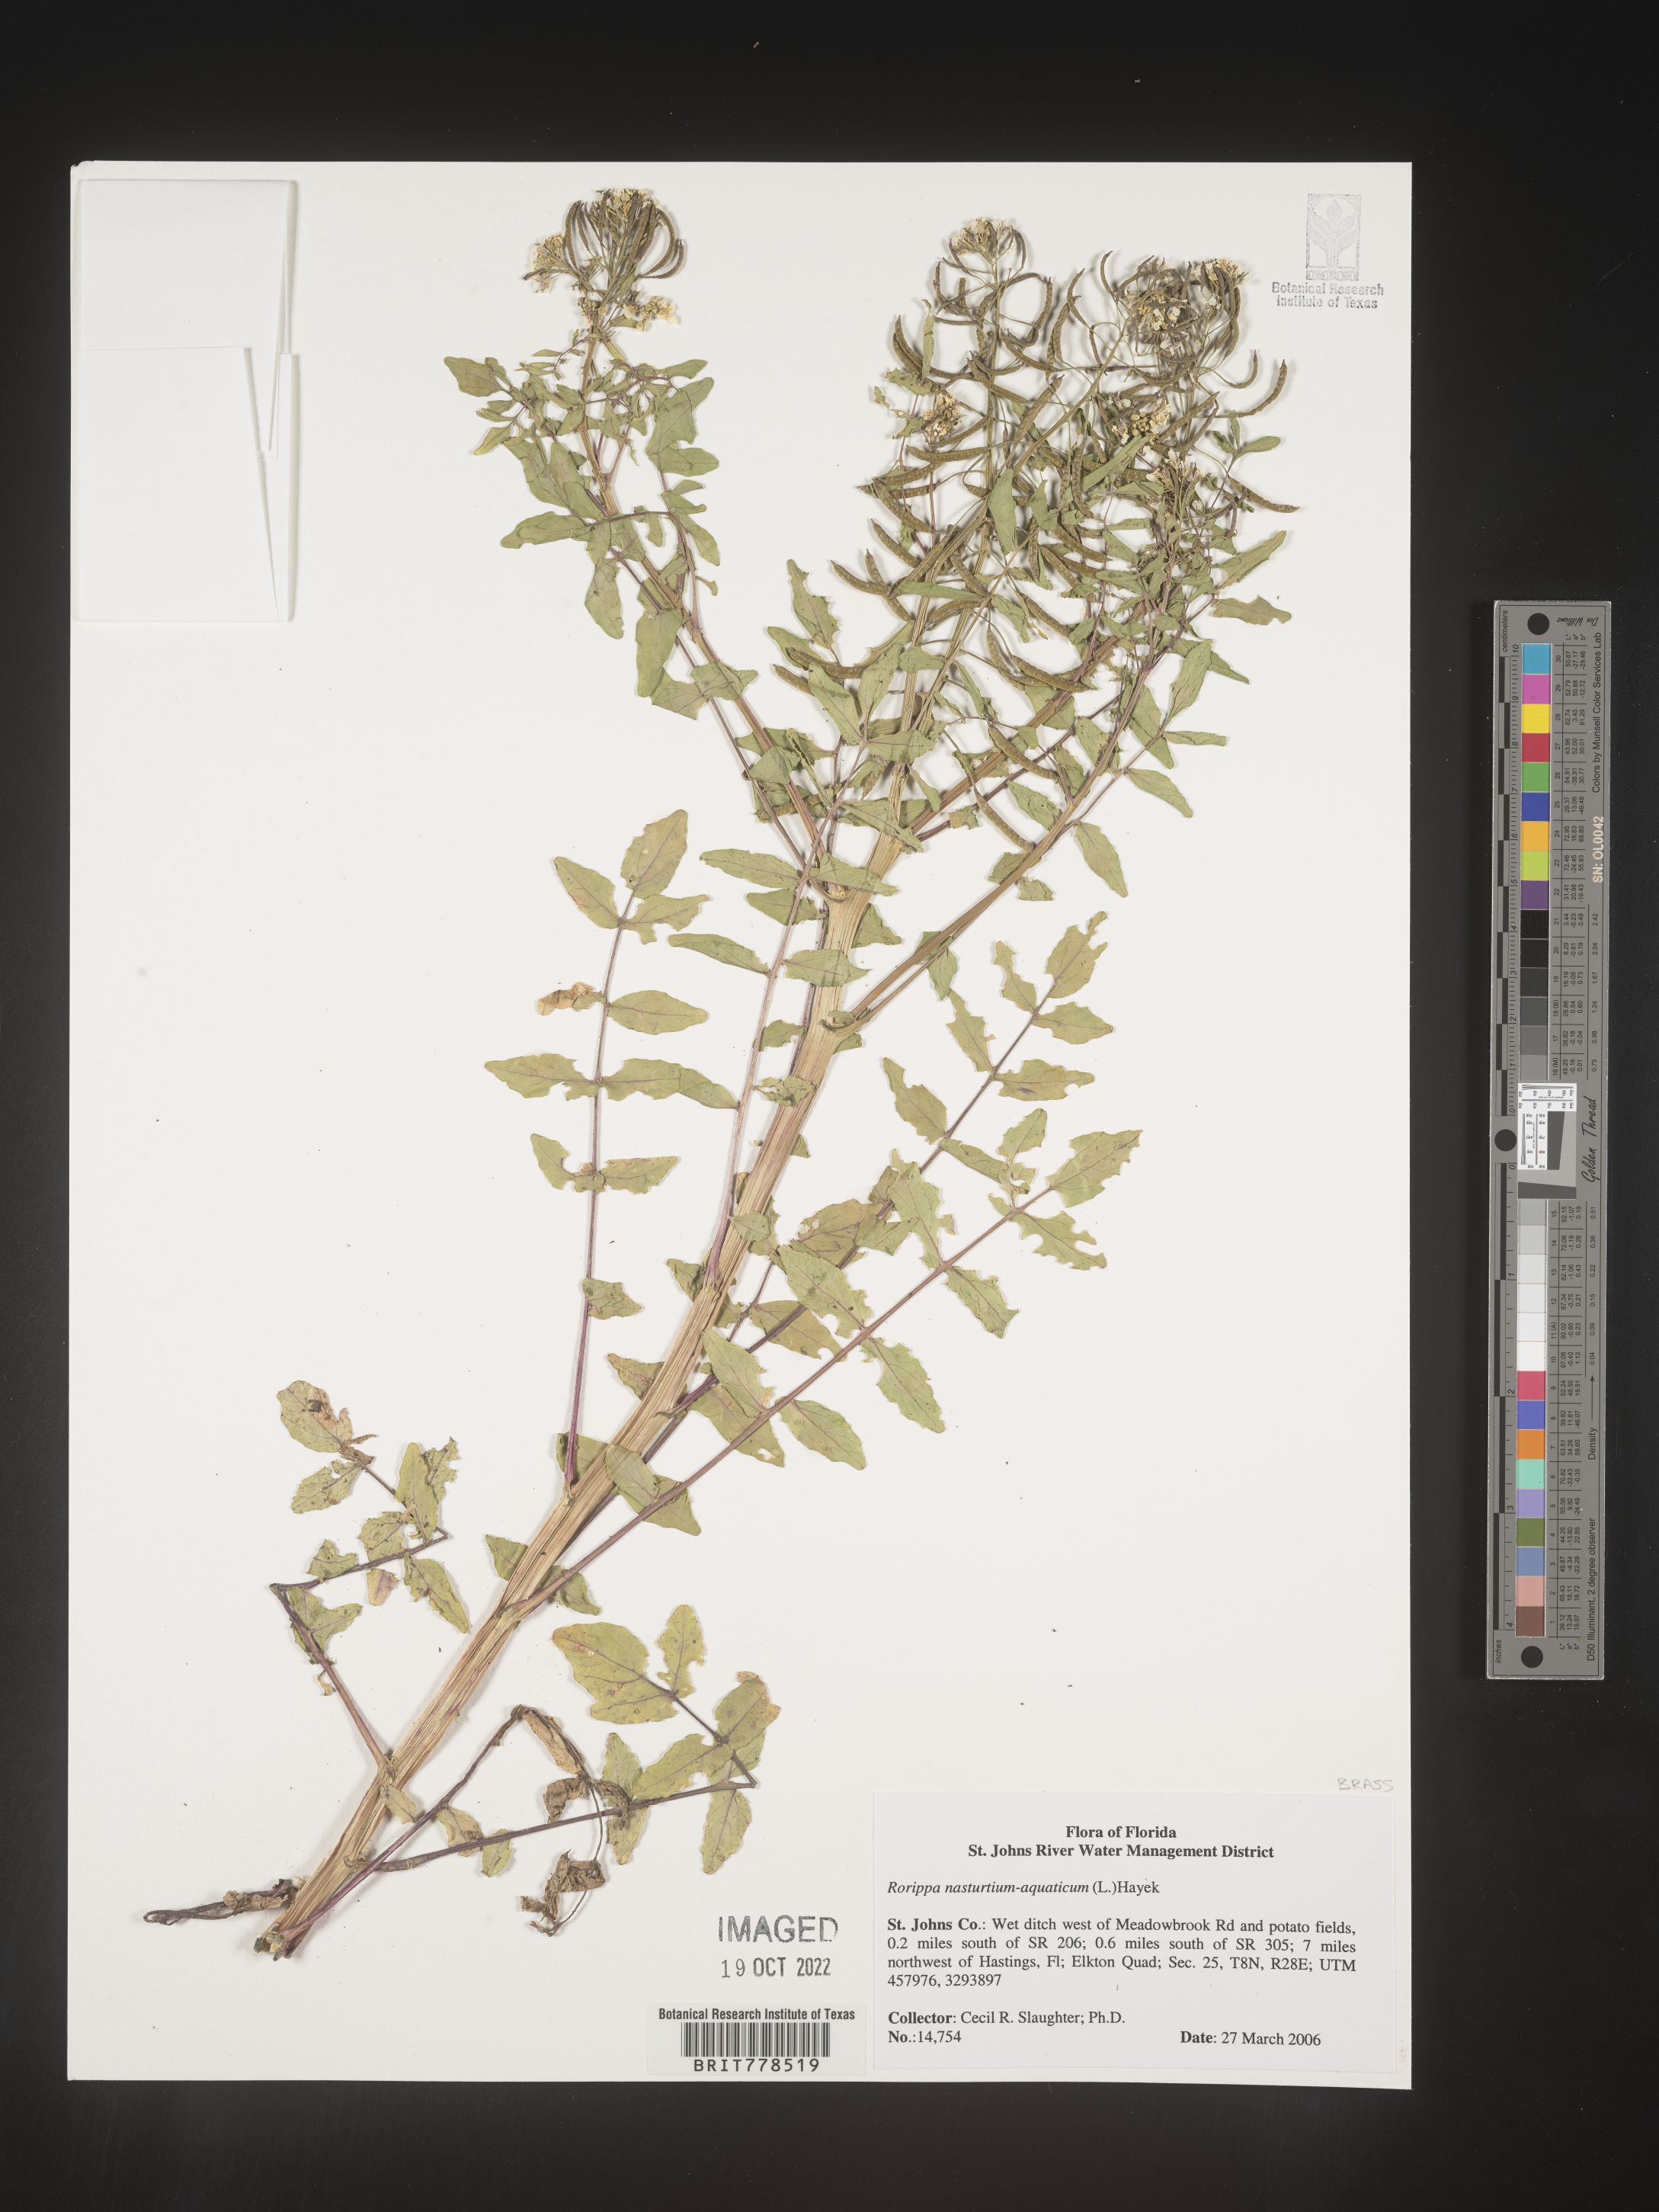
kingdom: Plantae
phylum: Tracheophyta
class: Magnoliopsida
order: Brassicales
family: Brassicaceae
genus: Nasturtium
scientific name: Nasturtium officinale
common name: Watercress
